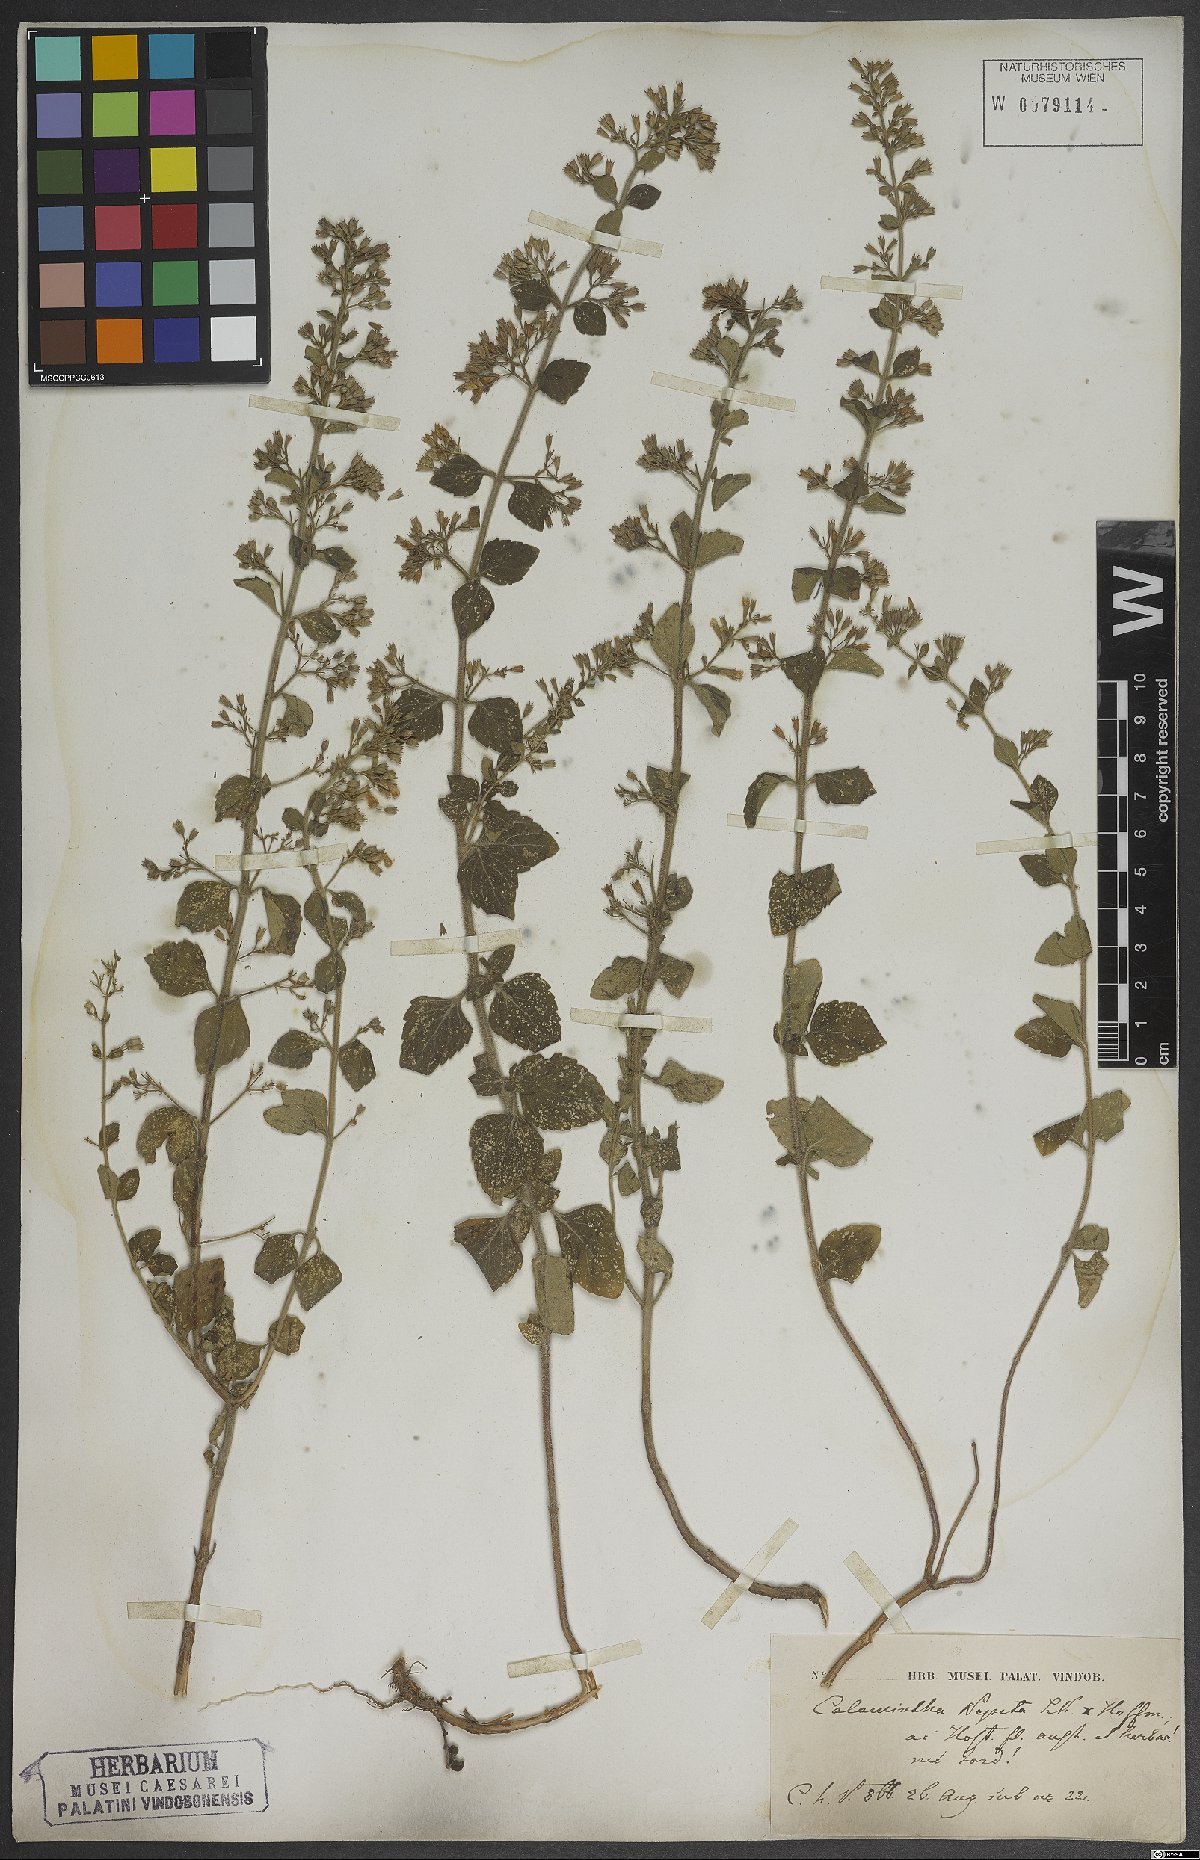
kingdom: Plantae
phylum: Tracheophyta
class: Magnoliopsida
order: Lamiales
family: Lamiaceae
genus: Clinopodium
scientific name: Clinopodium nepeta
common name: Lesser calamint
